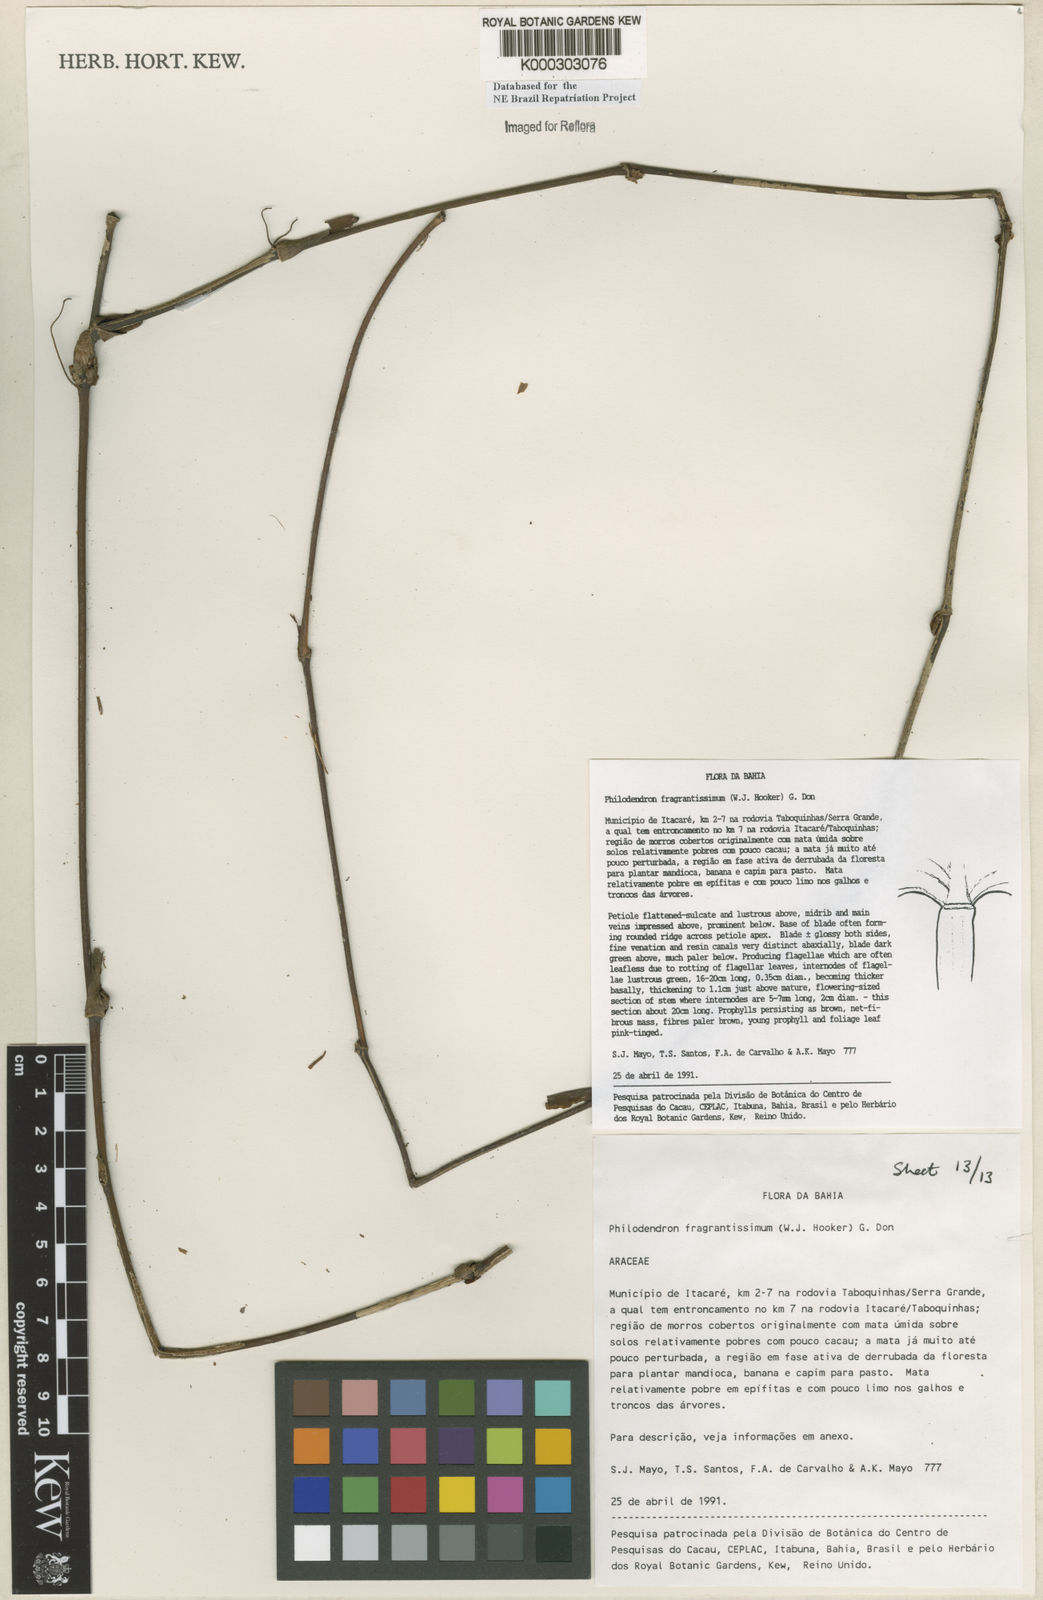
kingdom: Plantae
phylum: Tracheophyta
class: Liliopsida
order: Alismatales
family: Araceae
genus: Philodendron
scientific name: Philodendron fragrantissimum
